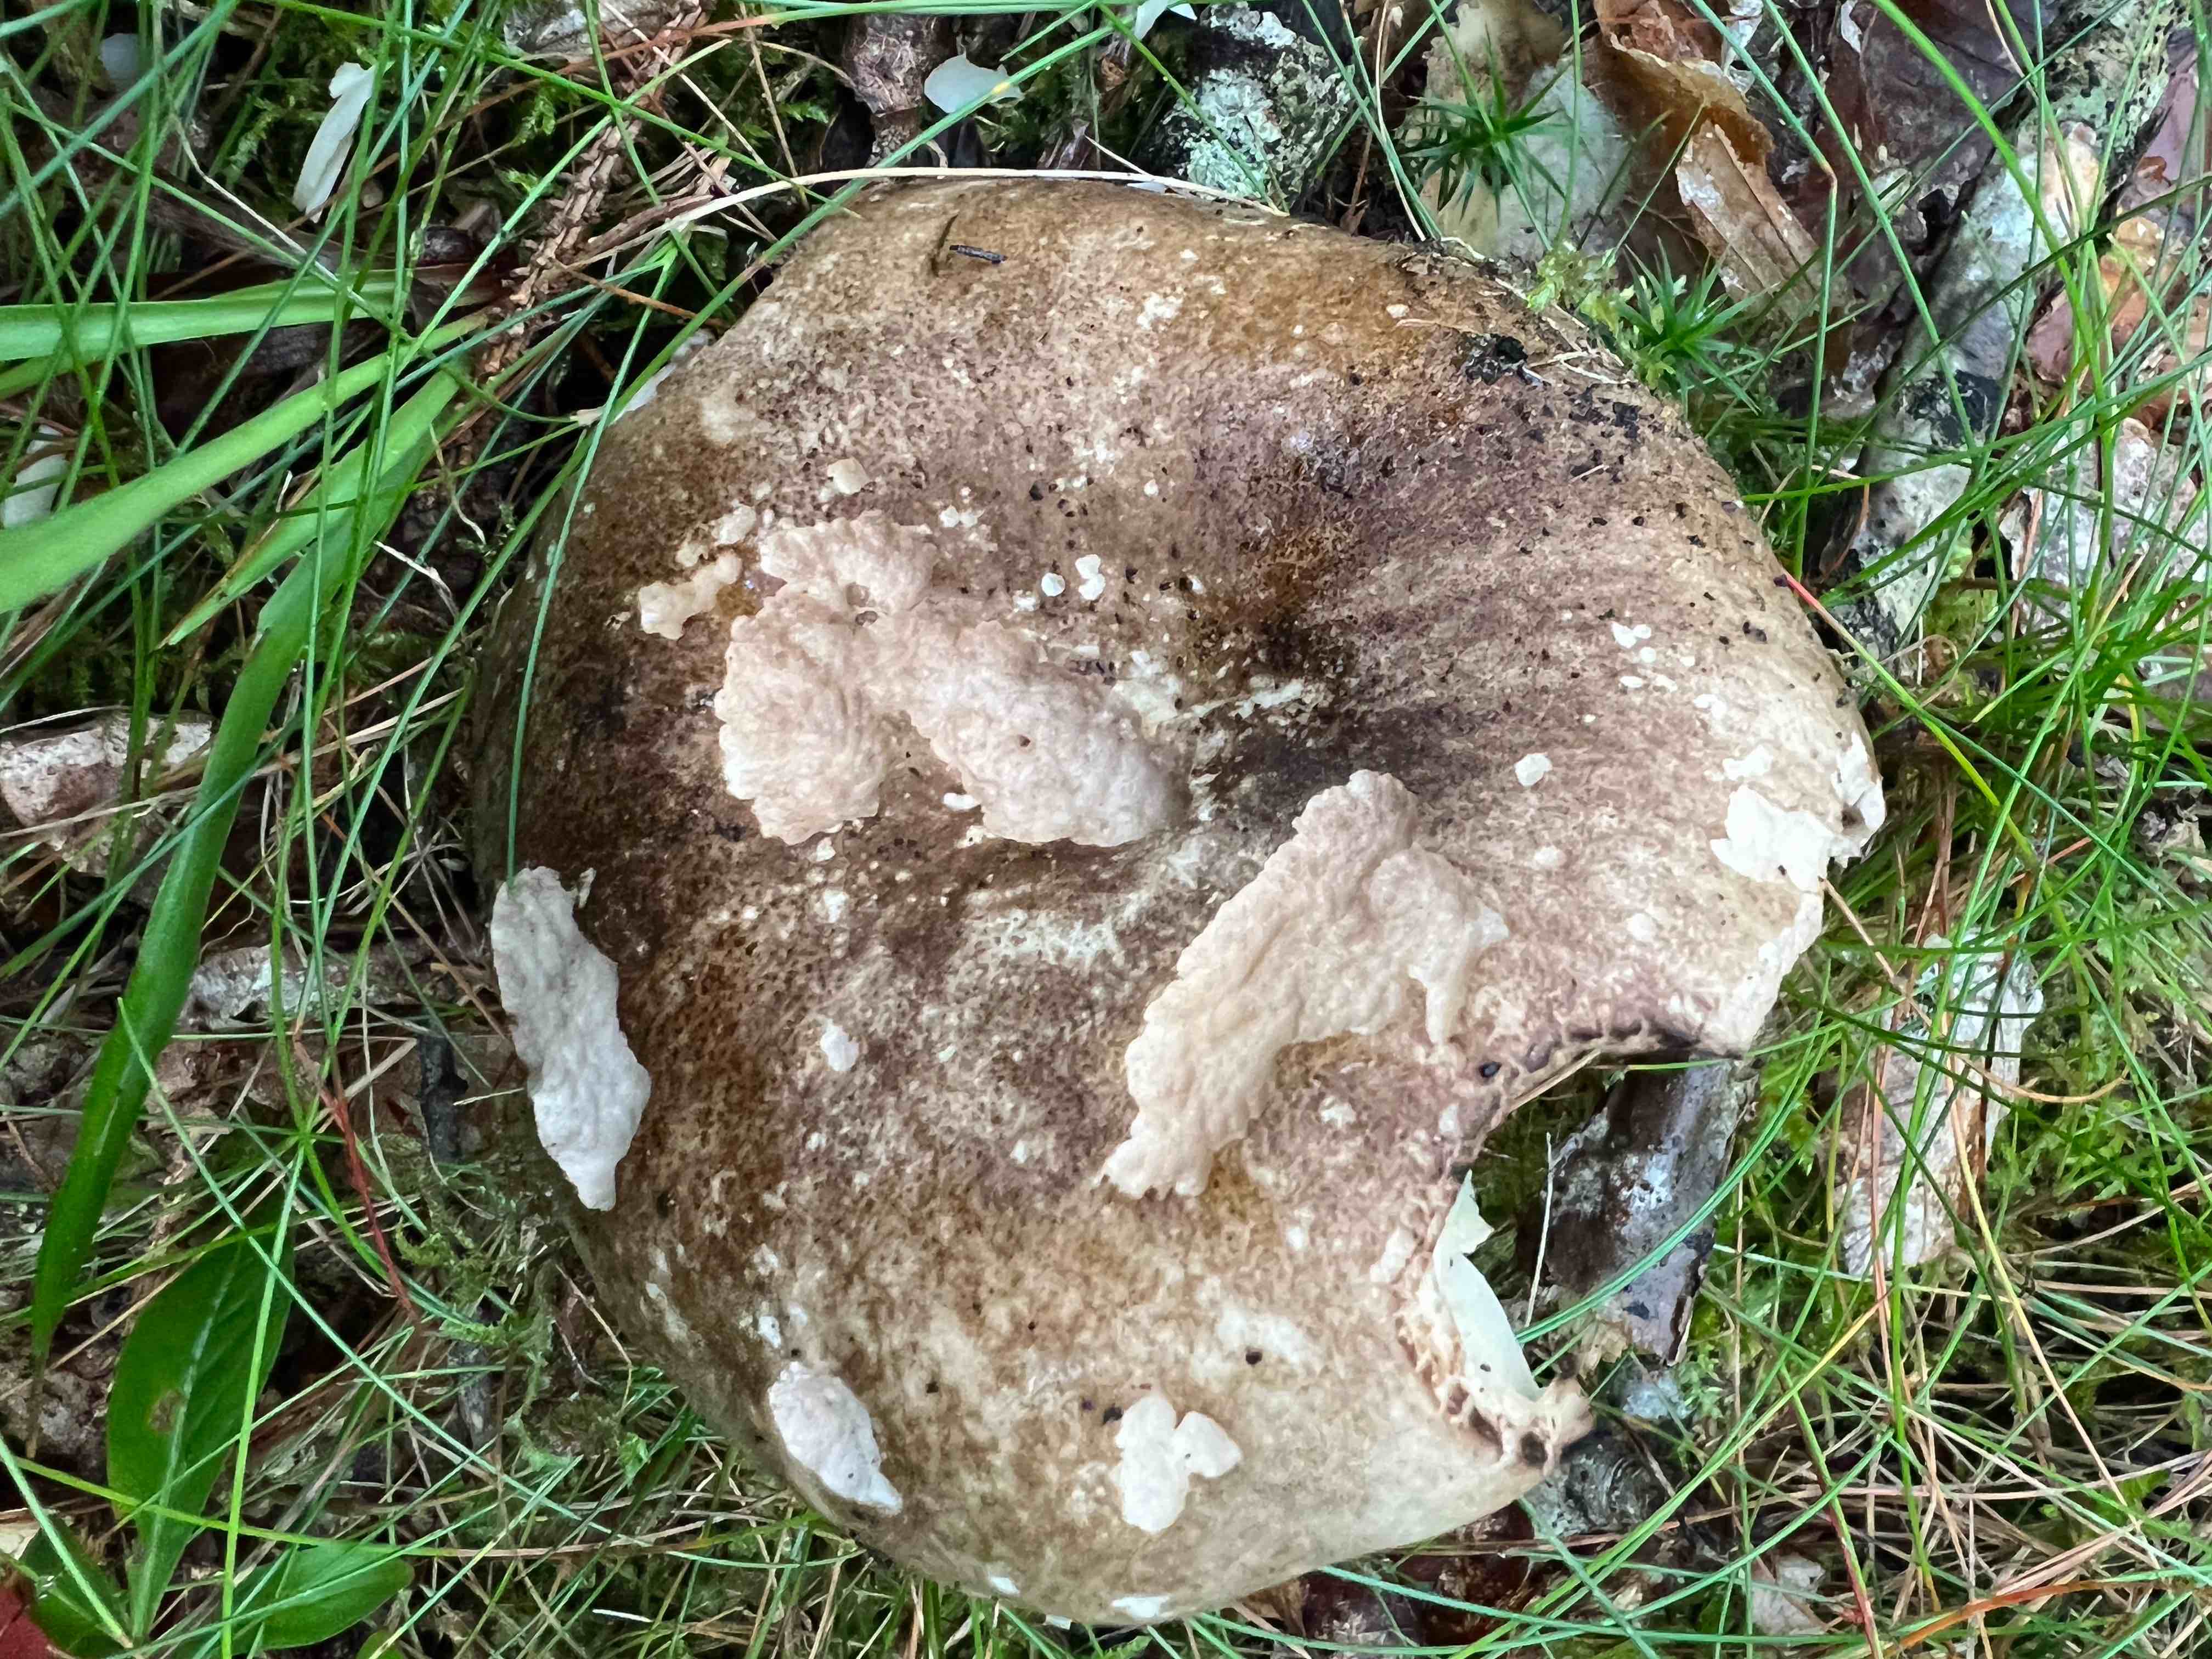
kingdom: Fungi
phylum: Basidiomycota
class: Agaricomycetes
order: Russulales
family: Russulaceae
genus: Russula
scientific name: Russula adusta
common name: sværtende skørhat
